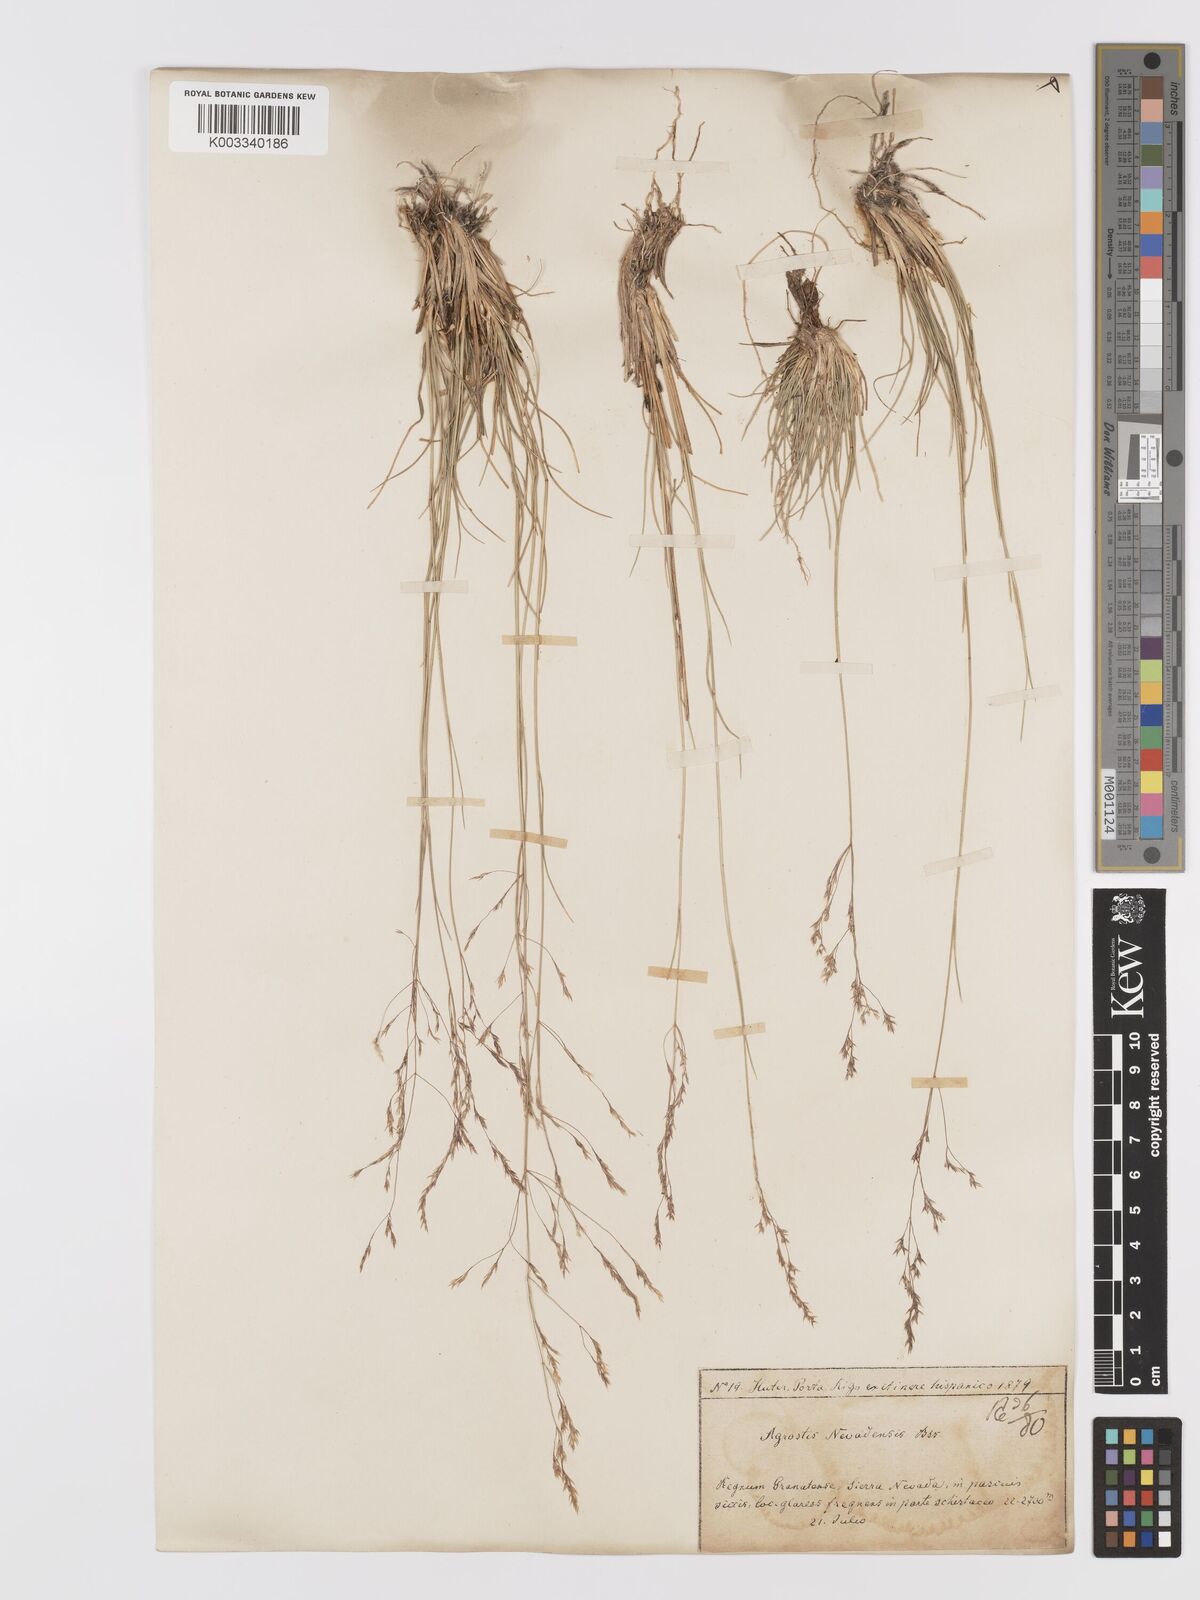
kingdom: Plantae
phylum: Tracheophyta
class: Liliopsida
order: Poales
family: Poaceae
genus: Agrostis
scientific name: Agrostis nevadensis
